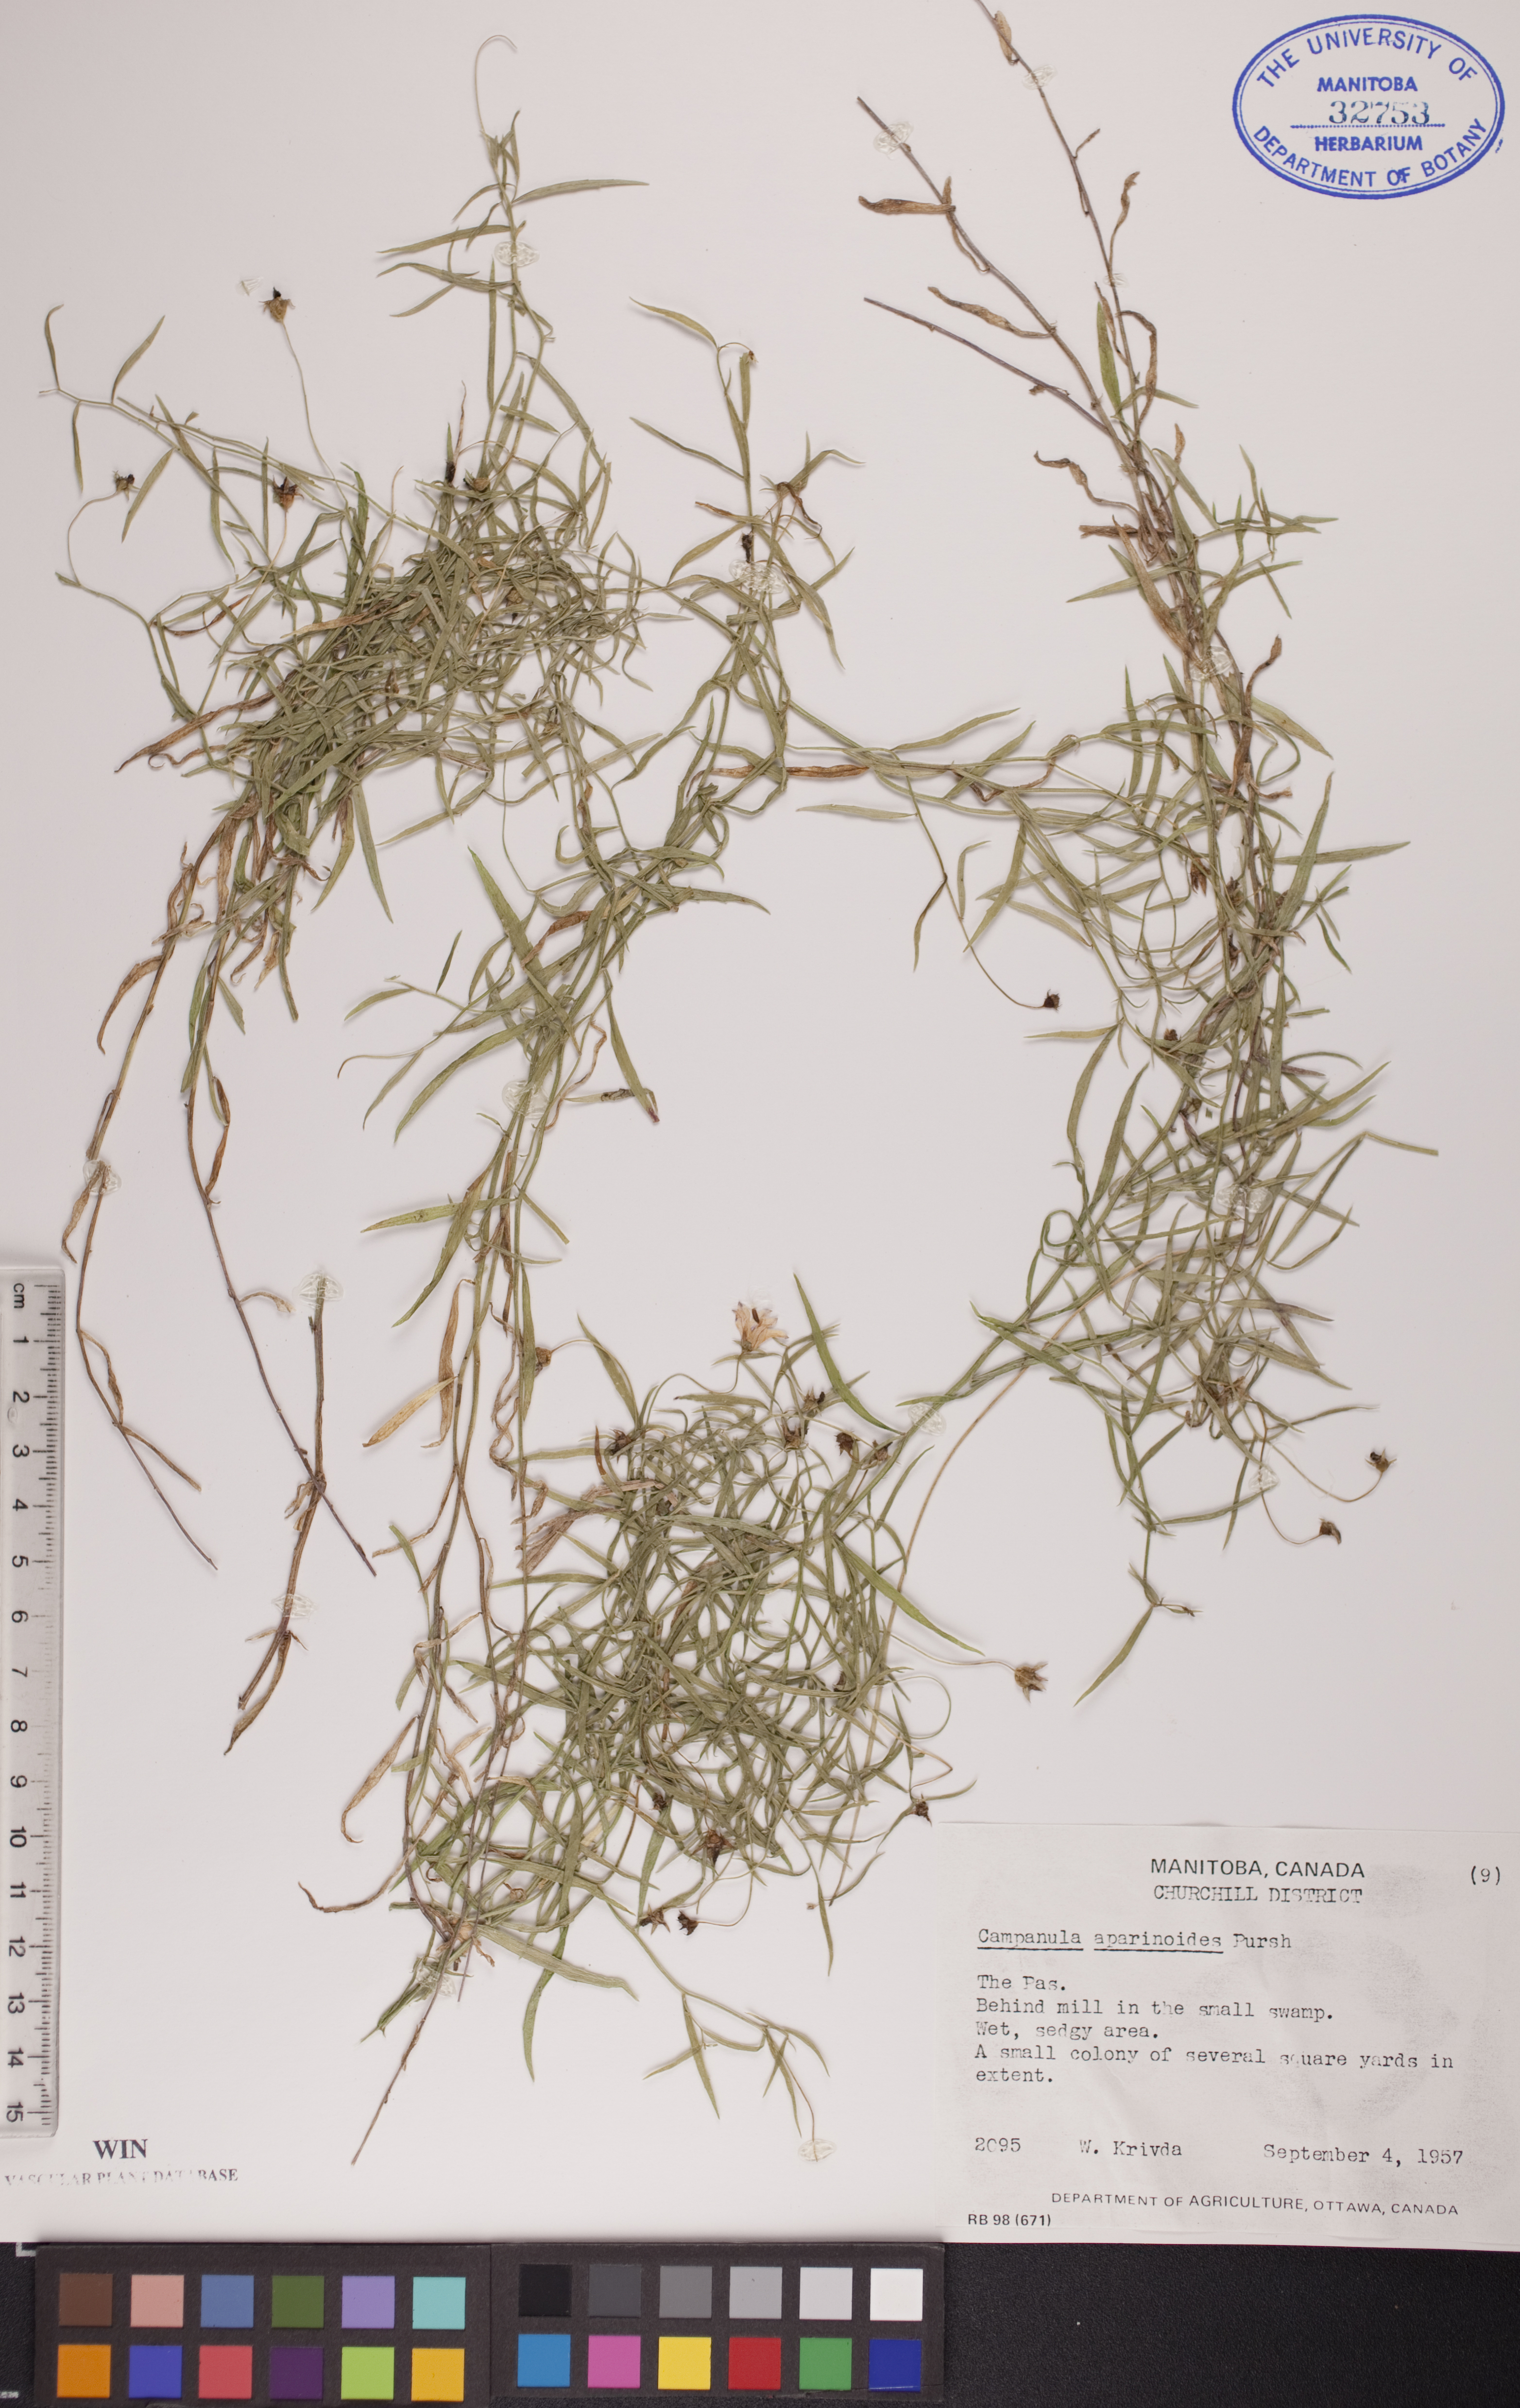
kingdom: Plantae
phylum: Tracheophyta
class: Magnoliopsida
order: Asterales
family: Campanulaceae
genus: Palustricodon
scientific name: Palustricodon aparinoides
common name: Bedstraw bellflower
